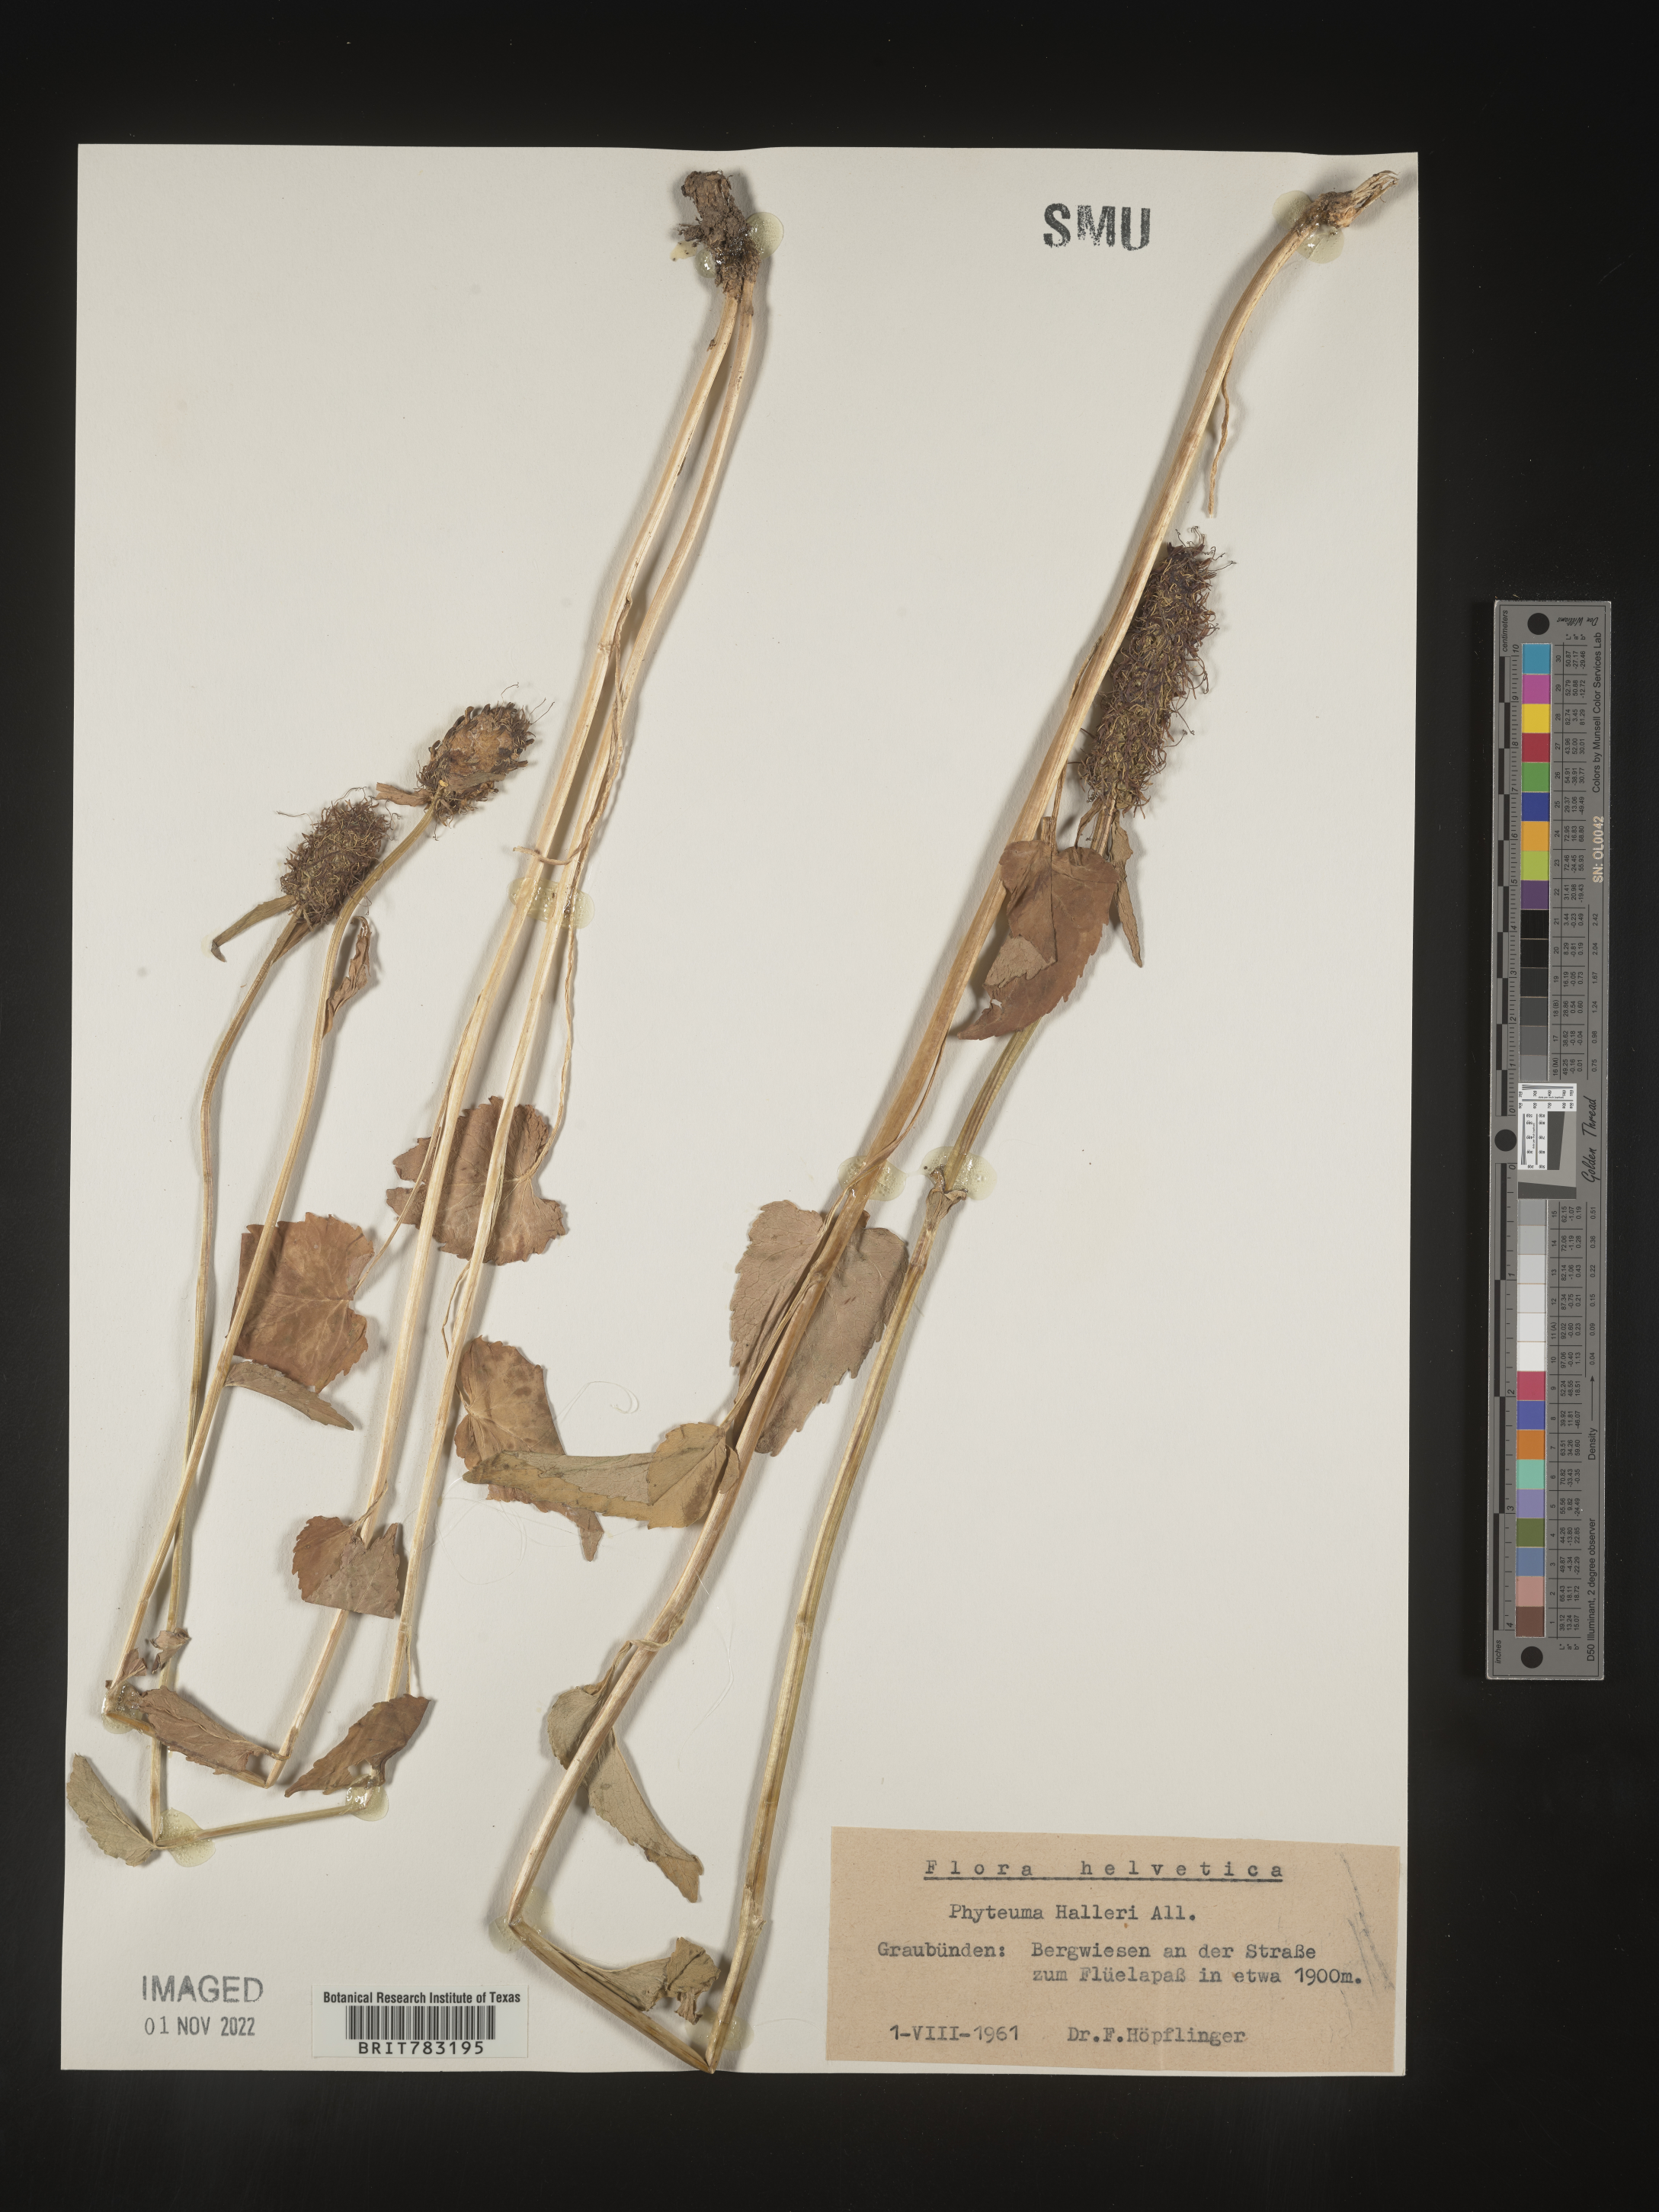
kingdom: Plantae
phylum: Tracheophyta
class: Magnoliopsida
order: Asterales
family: Campanulaceae
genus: Phyteuma
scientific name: Phyteuma
